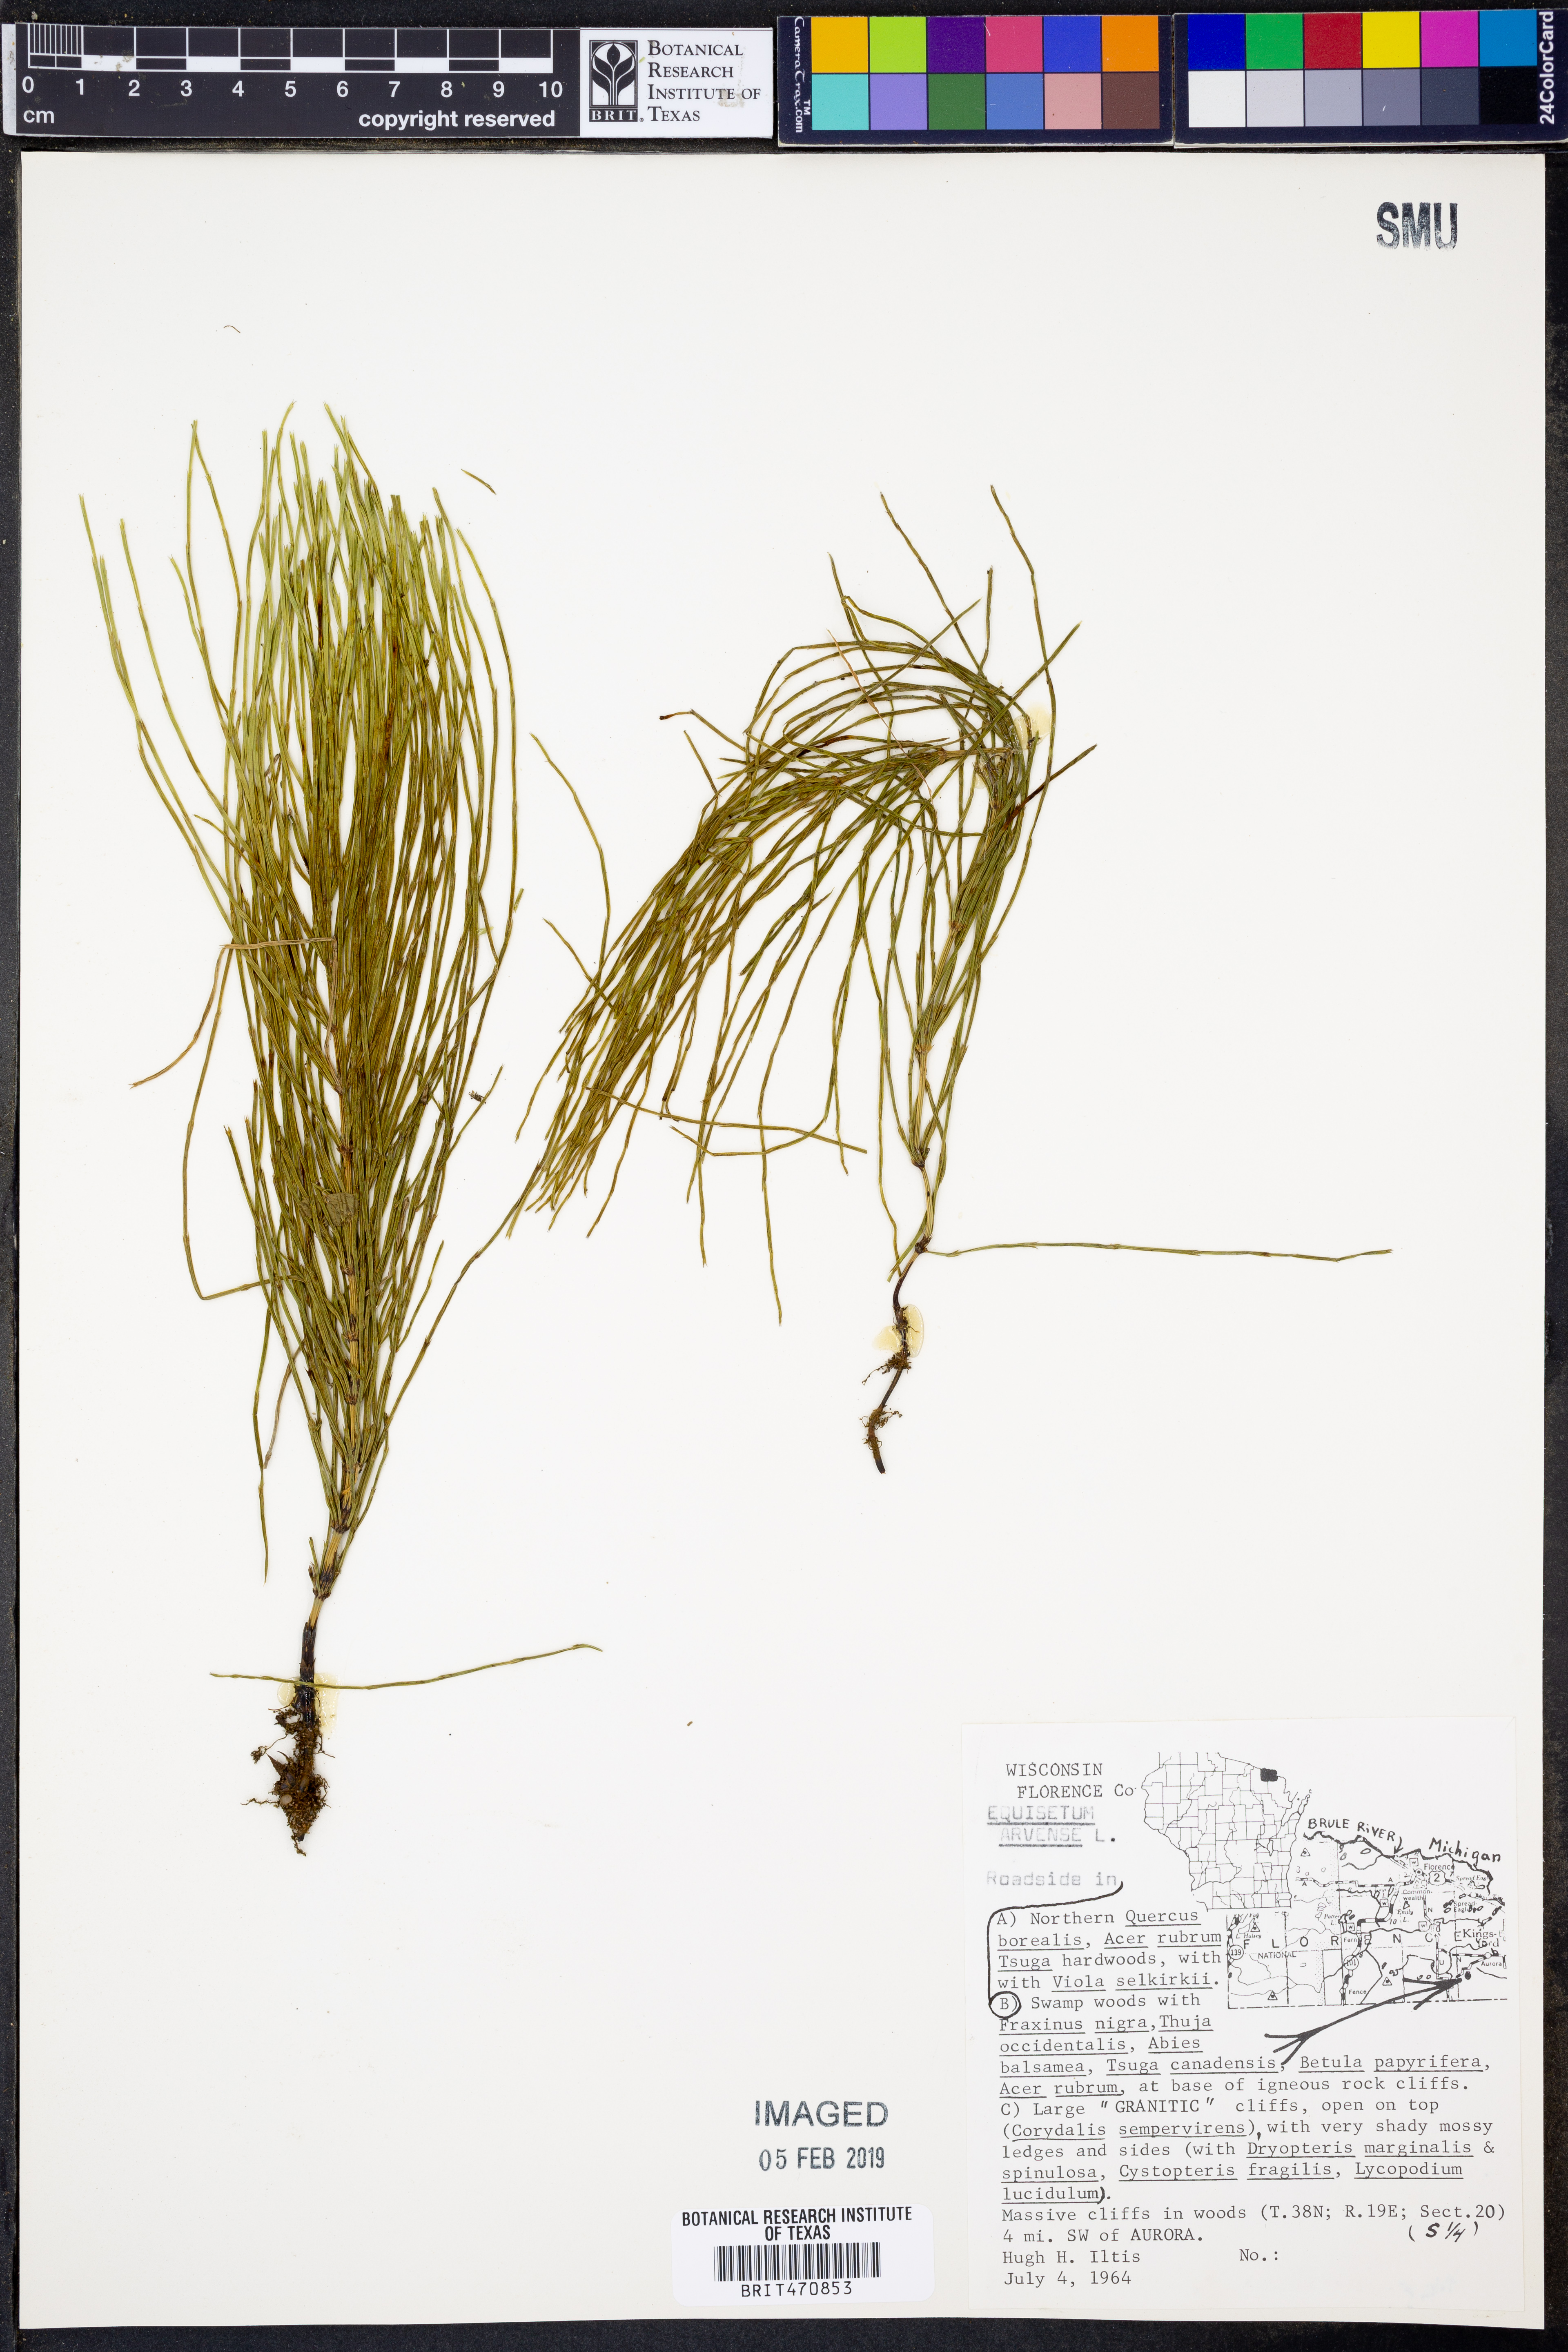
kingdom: Plantae
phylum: Tracheophyta
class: Polypodiopsida
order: Equisetales
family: Equisetaceae
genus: Equisetum
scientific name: Equisetum arvense
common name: Field horsetail
